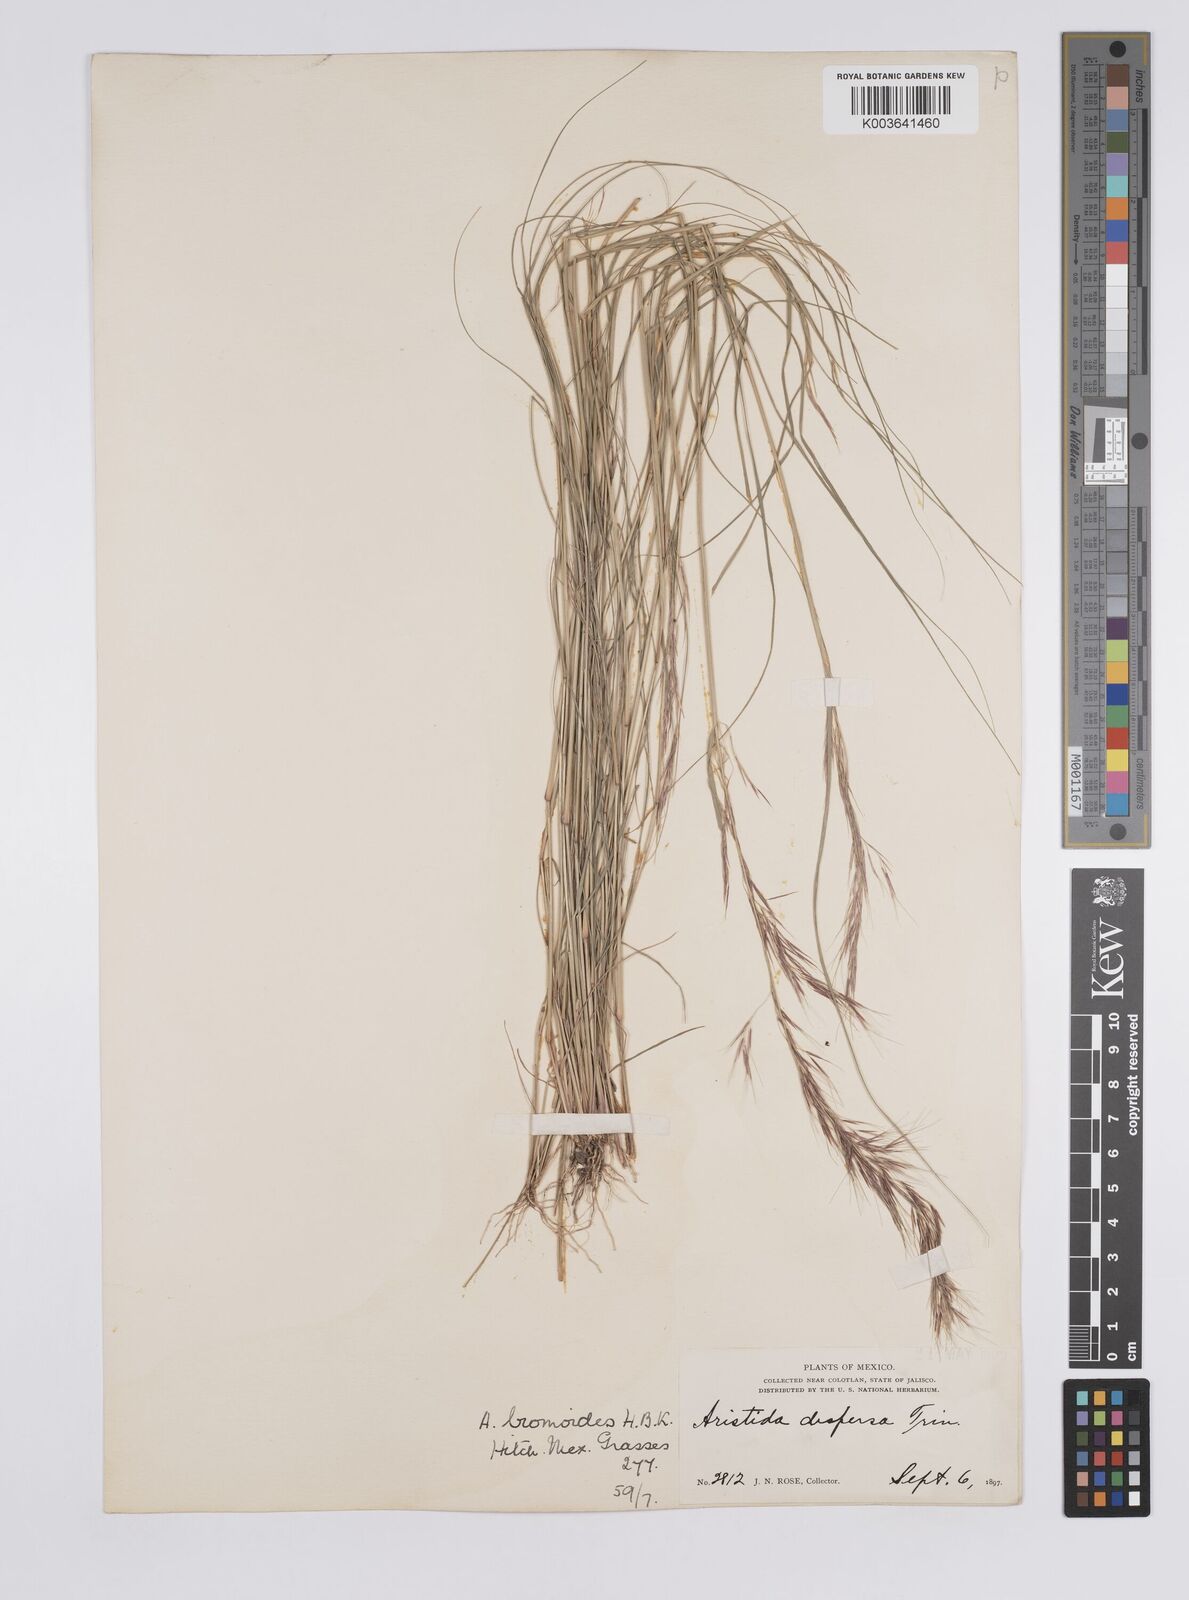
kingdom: Plantae
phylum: Tracheophyta
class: Liliopsida
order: Poales
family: Poaceae
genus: Aristida
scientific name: Aristida adscensionis
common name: Sixweeks threeawn
